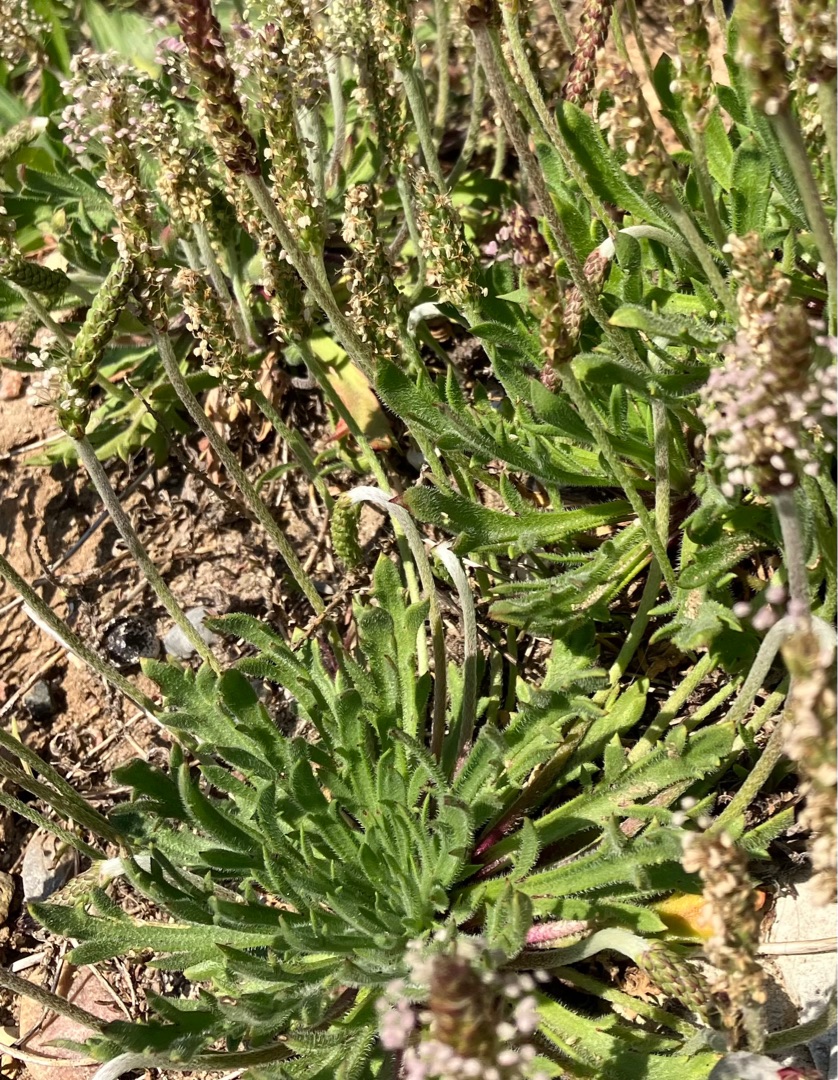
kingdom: Plantae
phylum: Tracheophyta
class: Magnoliopsida
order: Lamiales
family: Plantaginaceae
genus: Plantago
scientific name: Plantago coronopus
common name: Fliget vejbred
